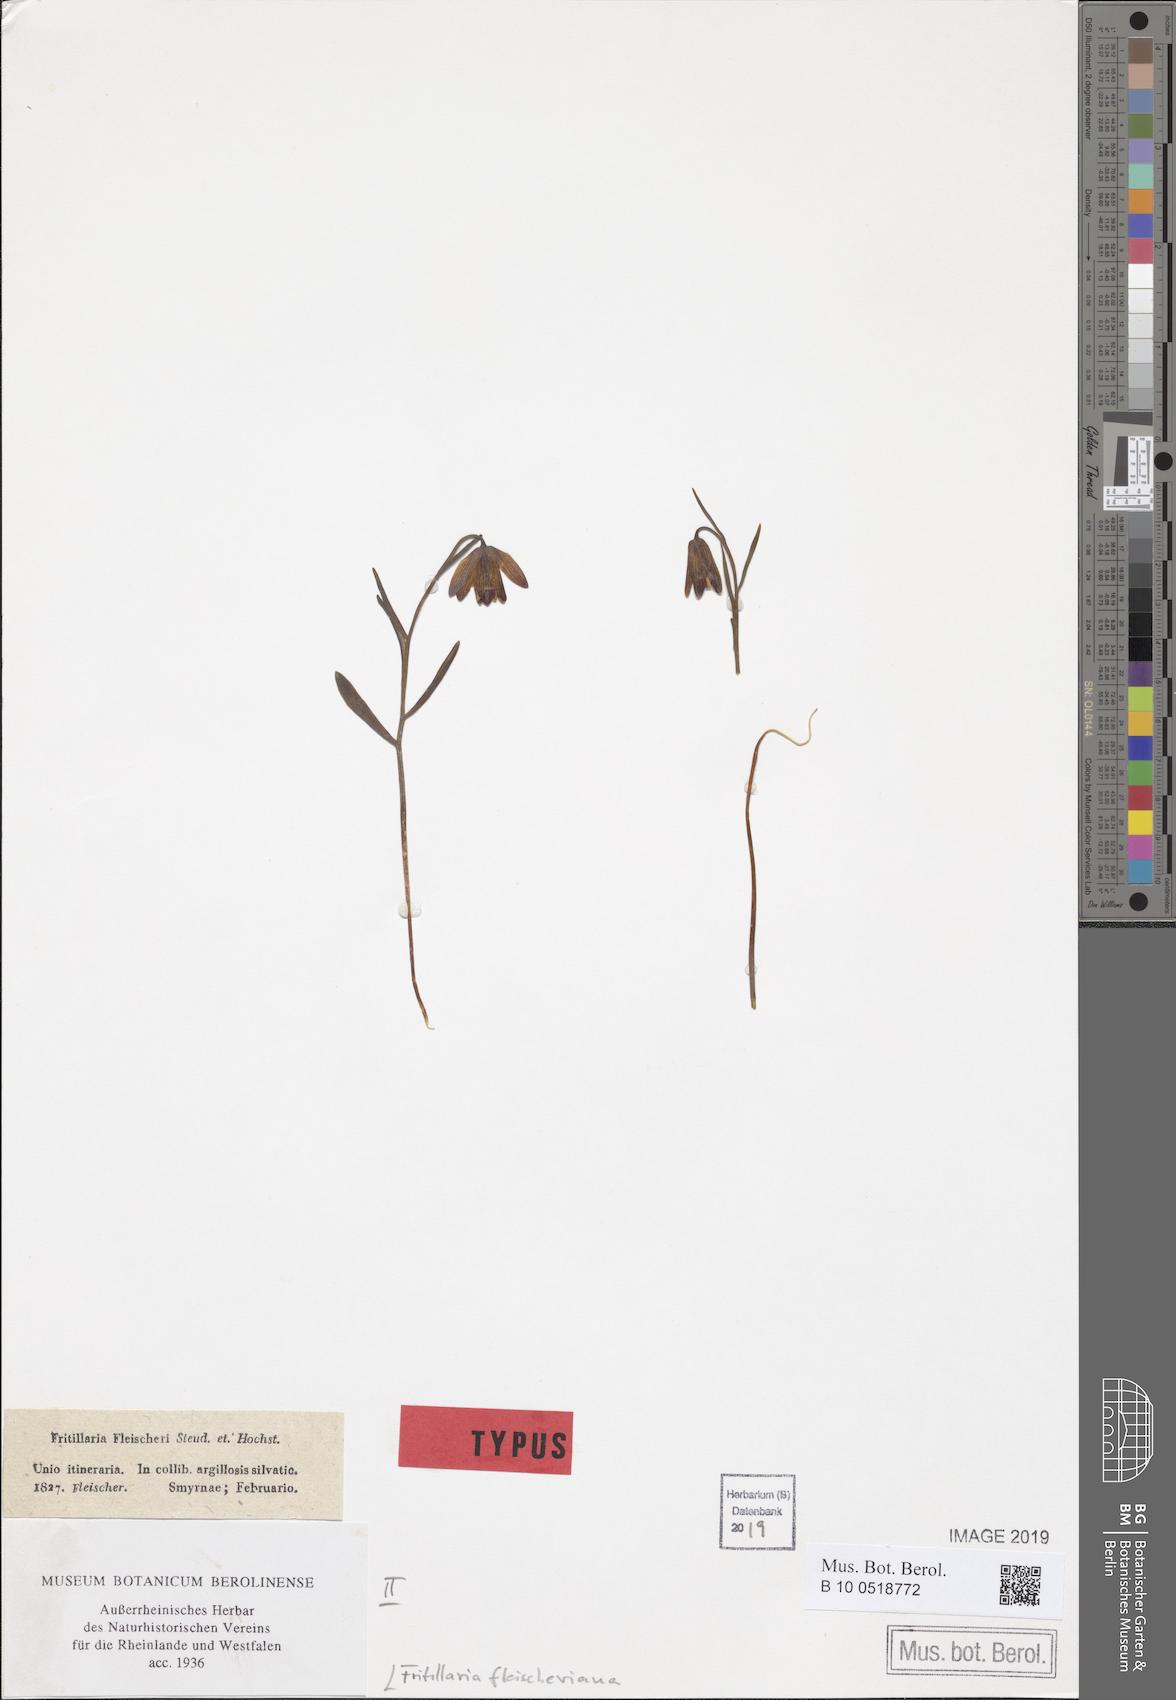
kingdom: Plantae
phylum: Tracheophyta
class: Liliopsida
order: Liliales
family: Liliaceae
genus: Fritillaria
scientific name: Fritillaria fleischeriana
